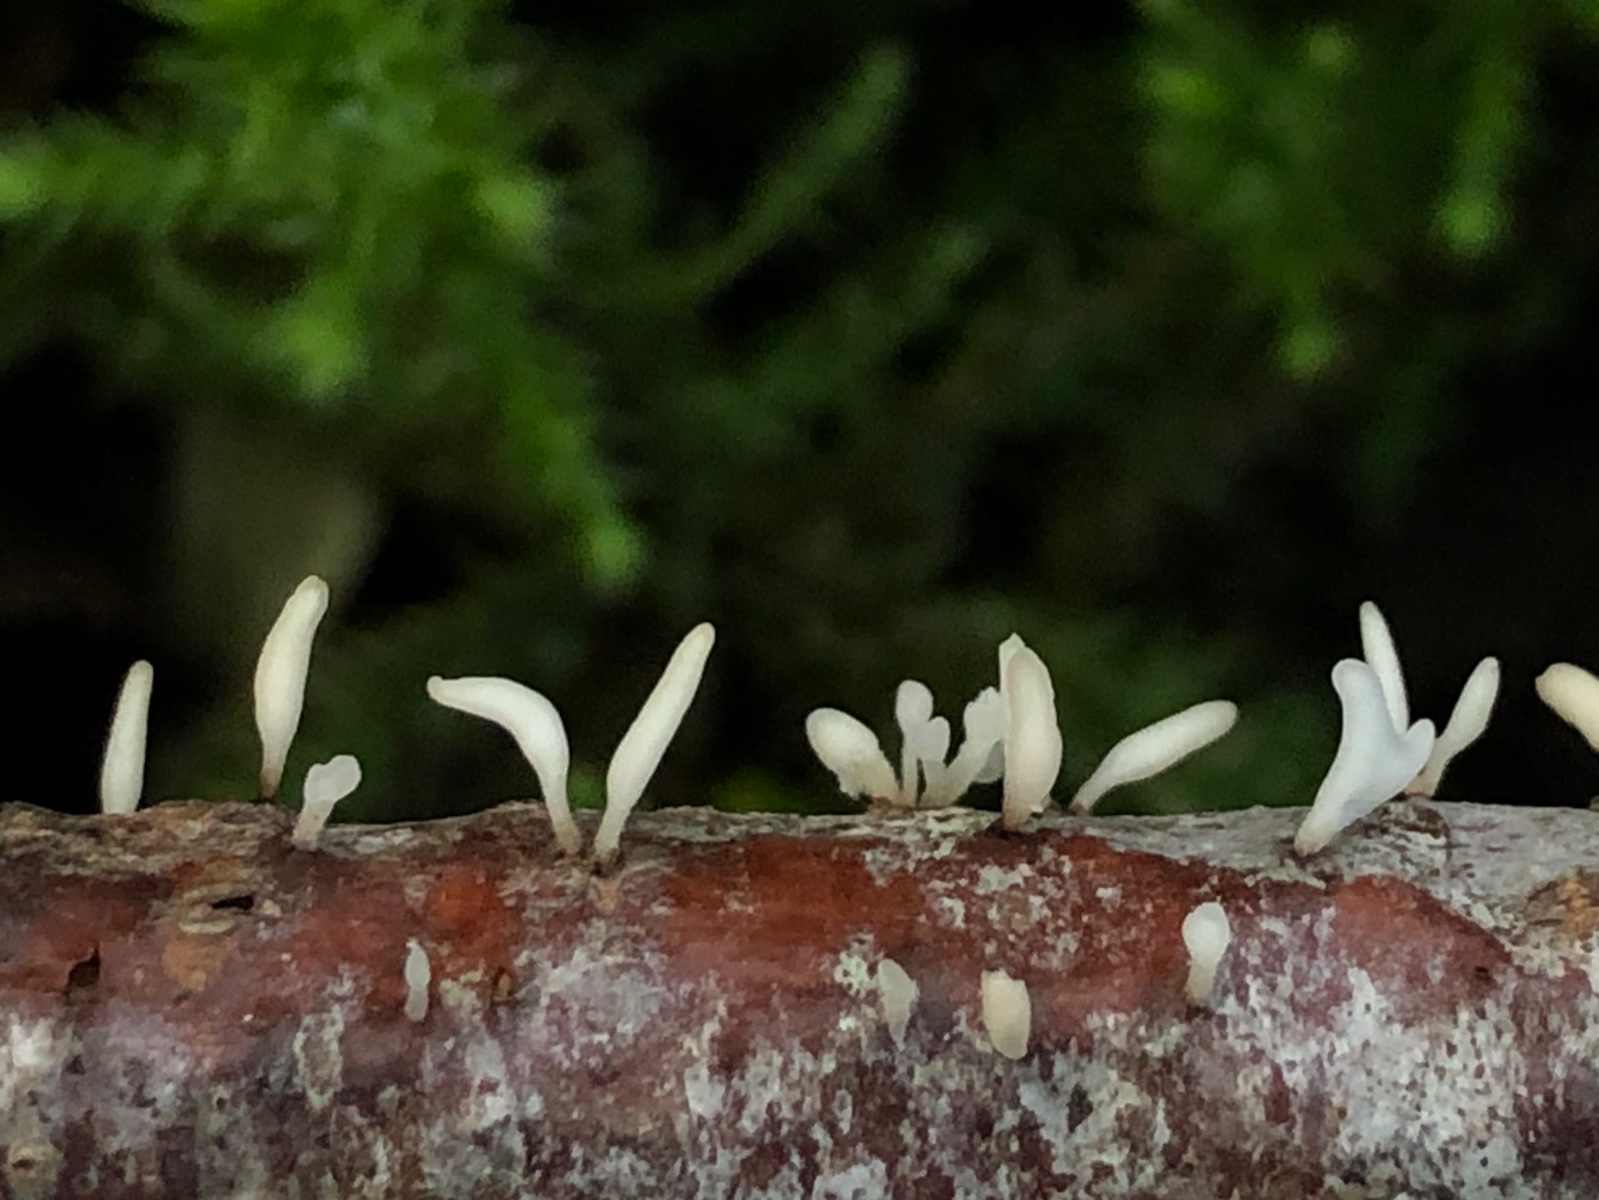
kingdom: Fungi
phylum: Basidiomycota
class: Agaricomycetes
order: Agaricales
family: Typhulaceae
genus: Typhula
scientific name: Typhula spathulata
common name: aske-trådkølle
